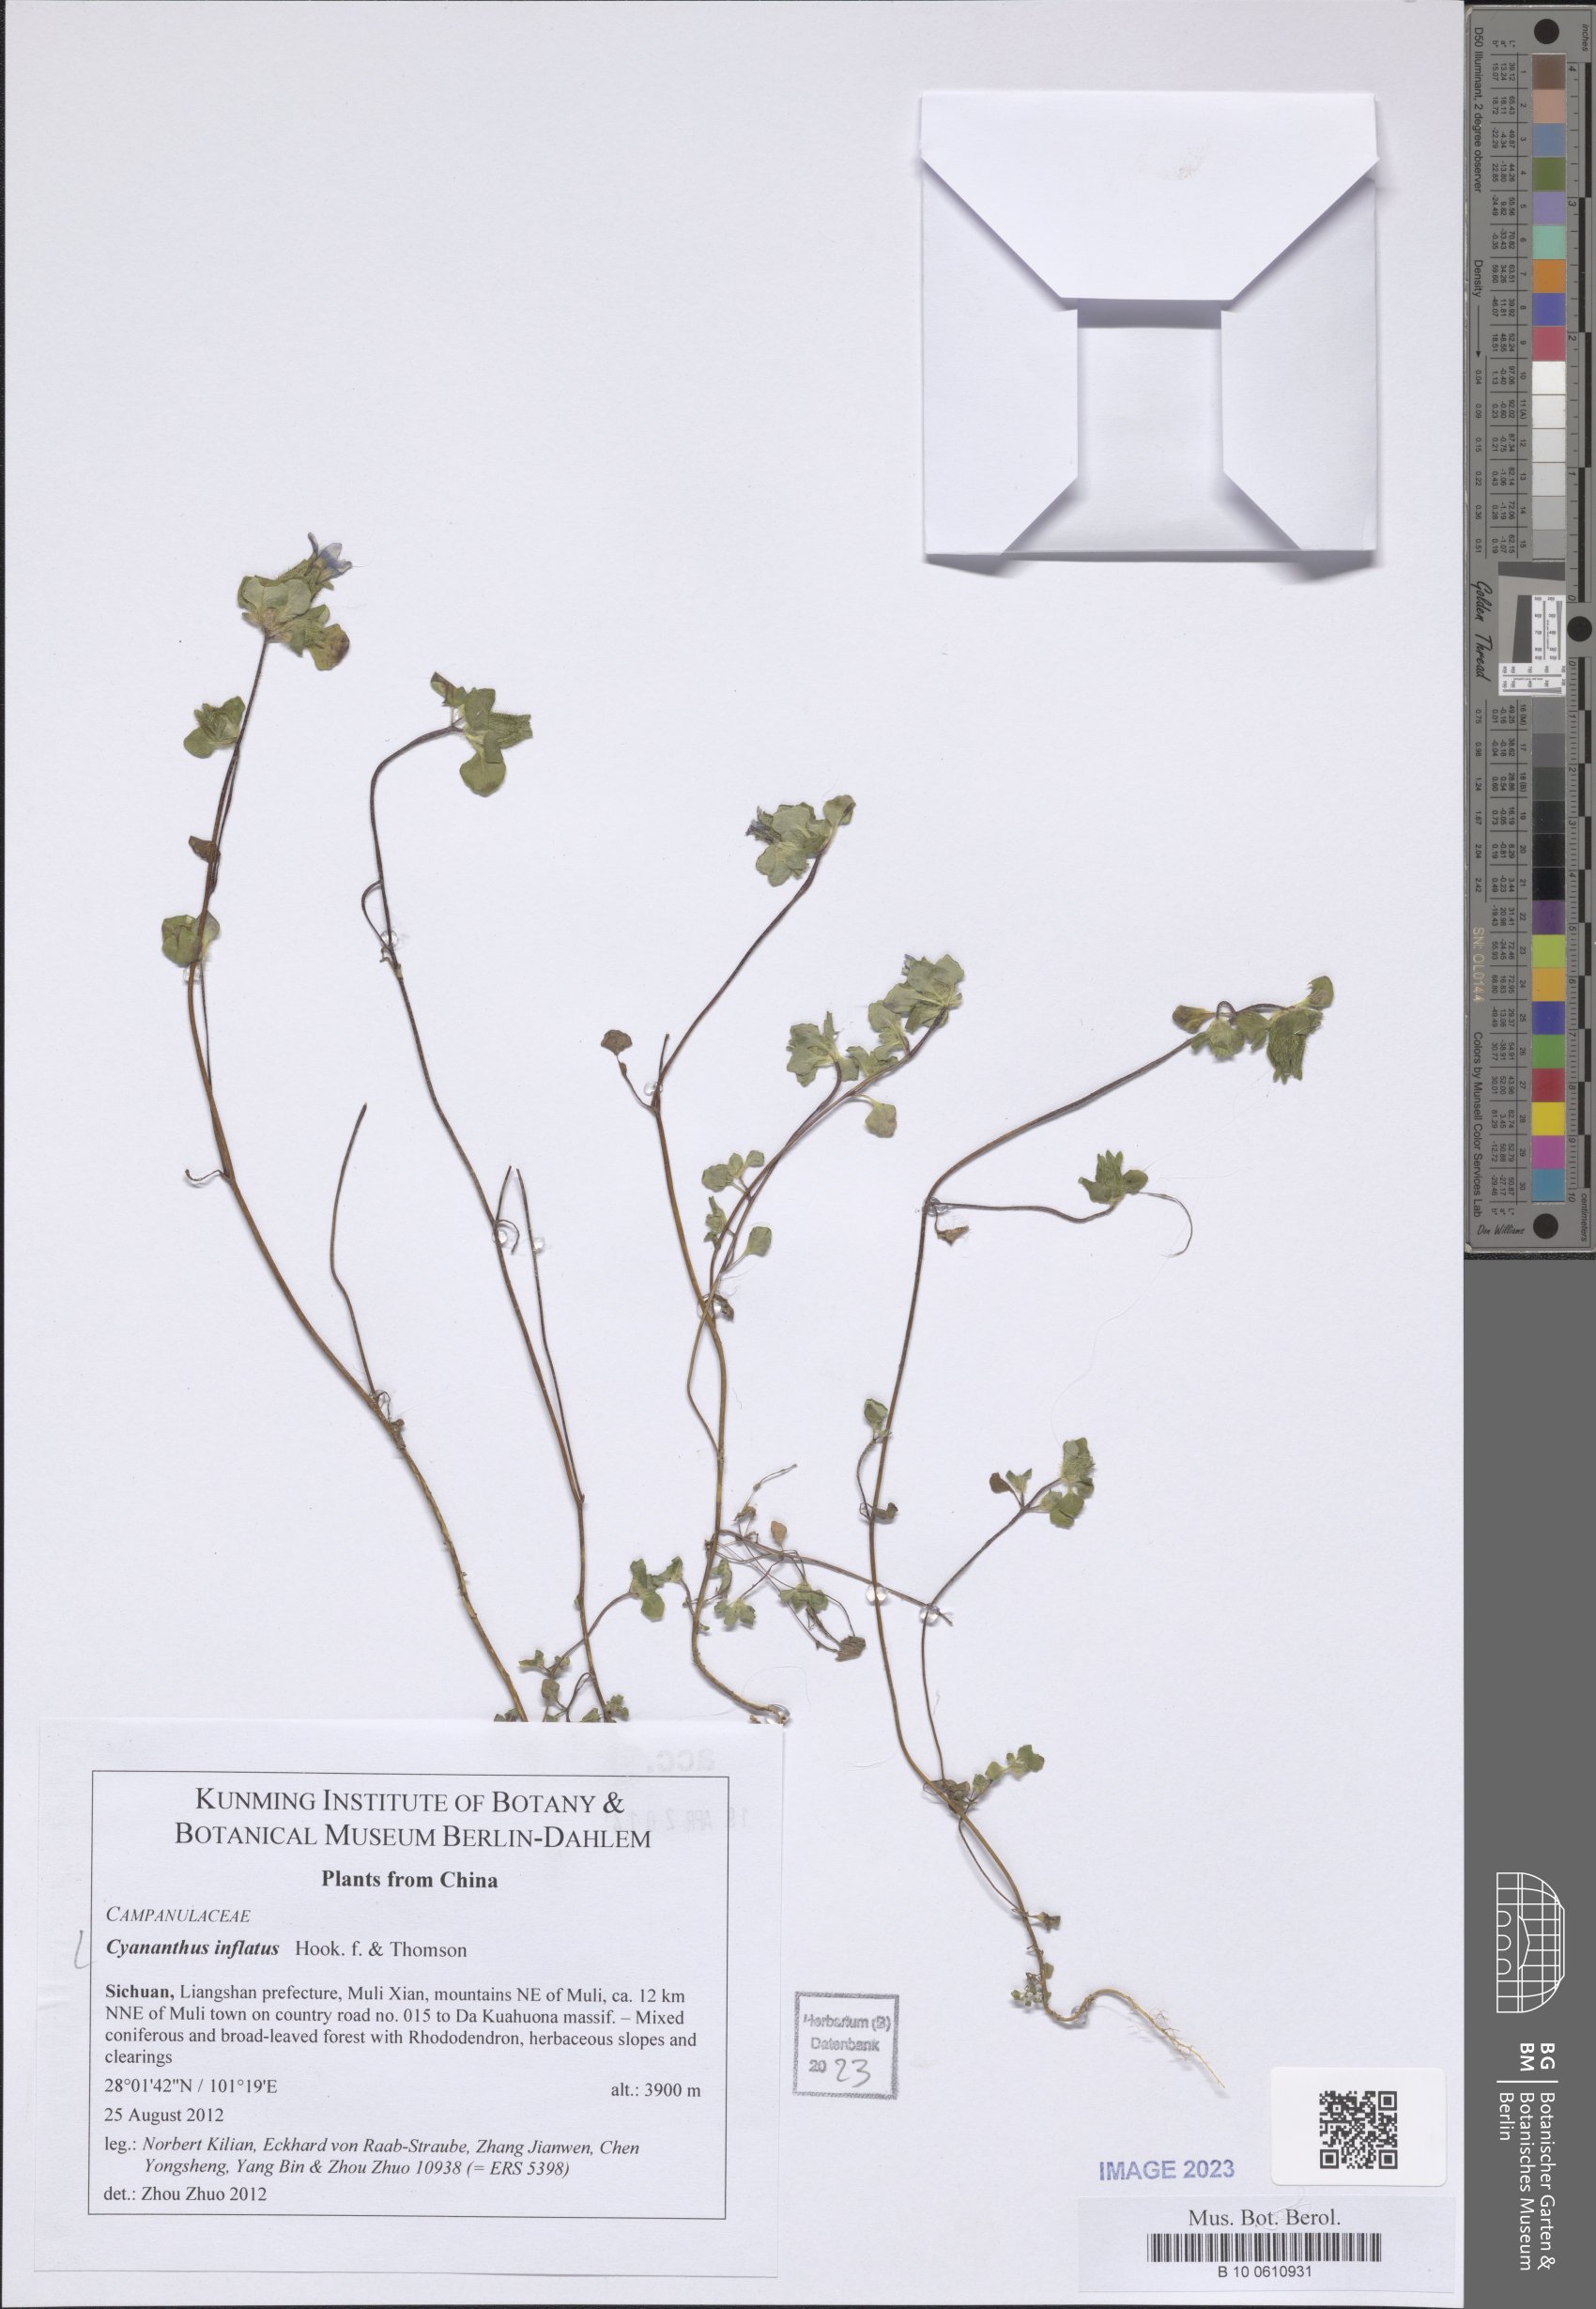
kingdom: Plantae
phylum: Tracheophyta
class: Magnoliopsida
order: Asterales
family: Campanulaceae
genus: Cyananthus
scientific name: Cyananthus inflatus
